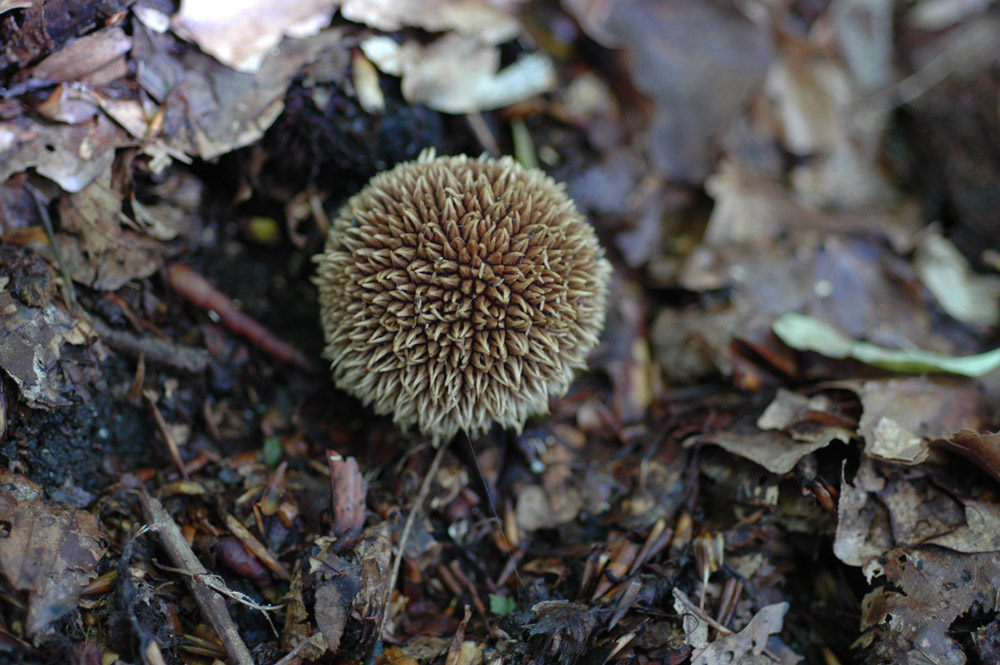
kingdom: Fungi
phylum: Basidiomycota
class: Agaricomycetes
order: Agaricales
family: Lycoperdaceae
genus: Lycoperdon
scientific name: Lycoperdon echinatum
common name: pindsvine-støvbold
